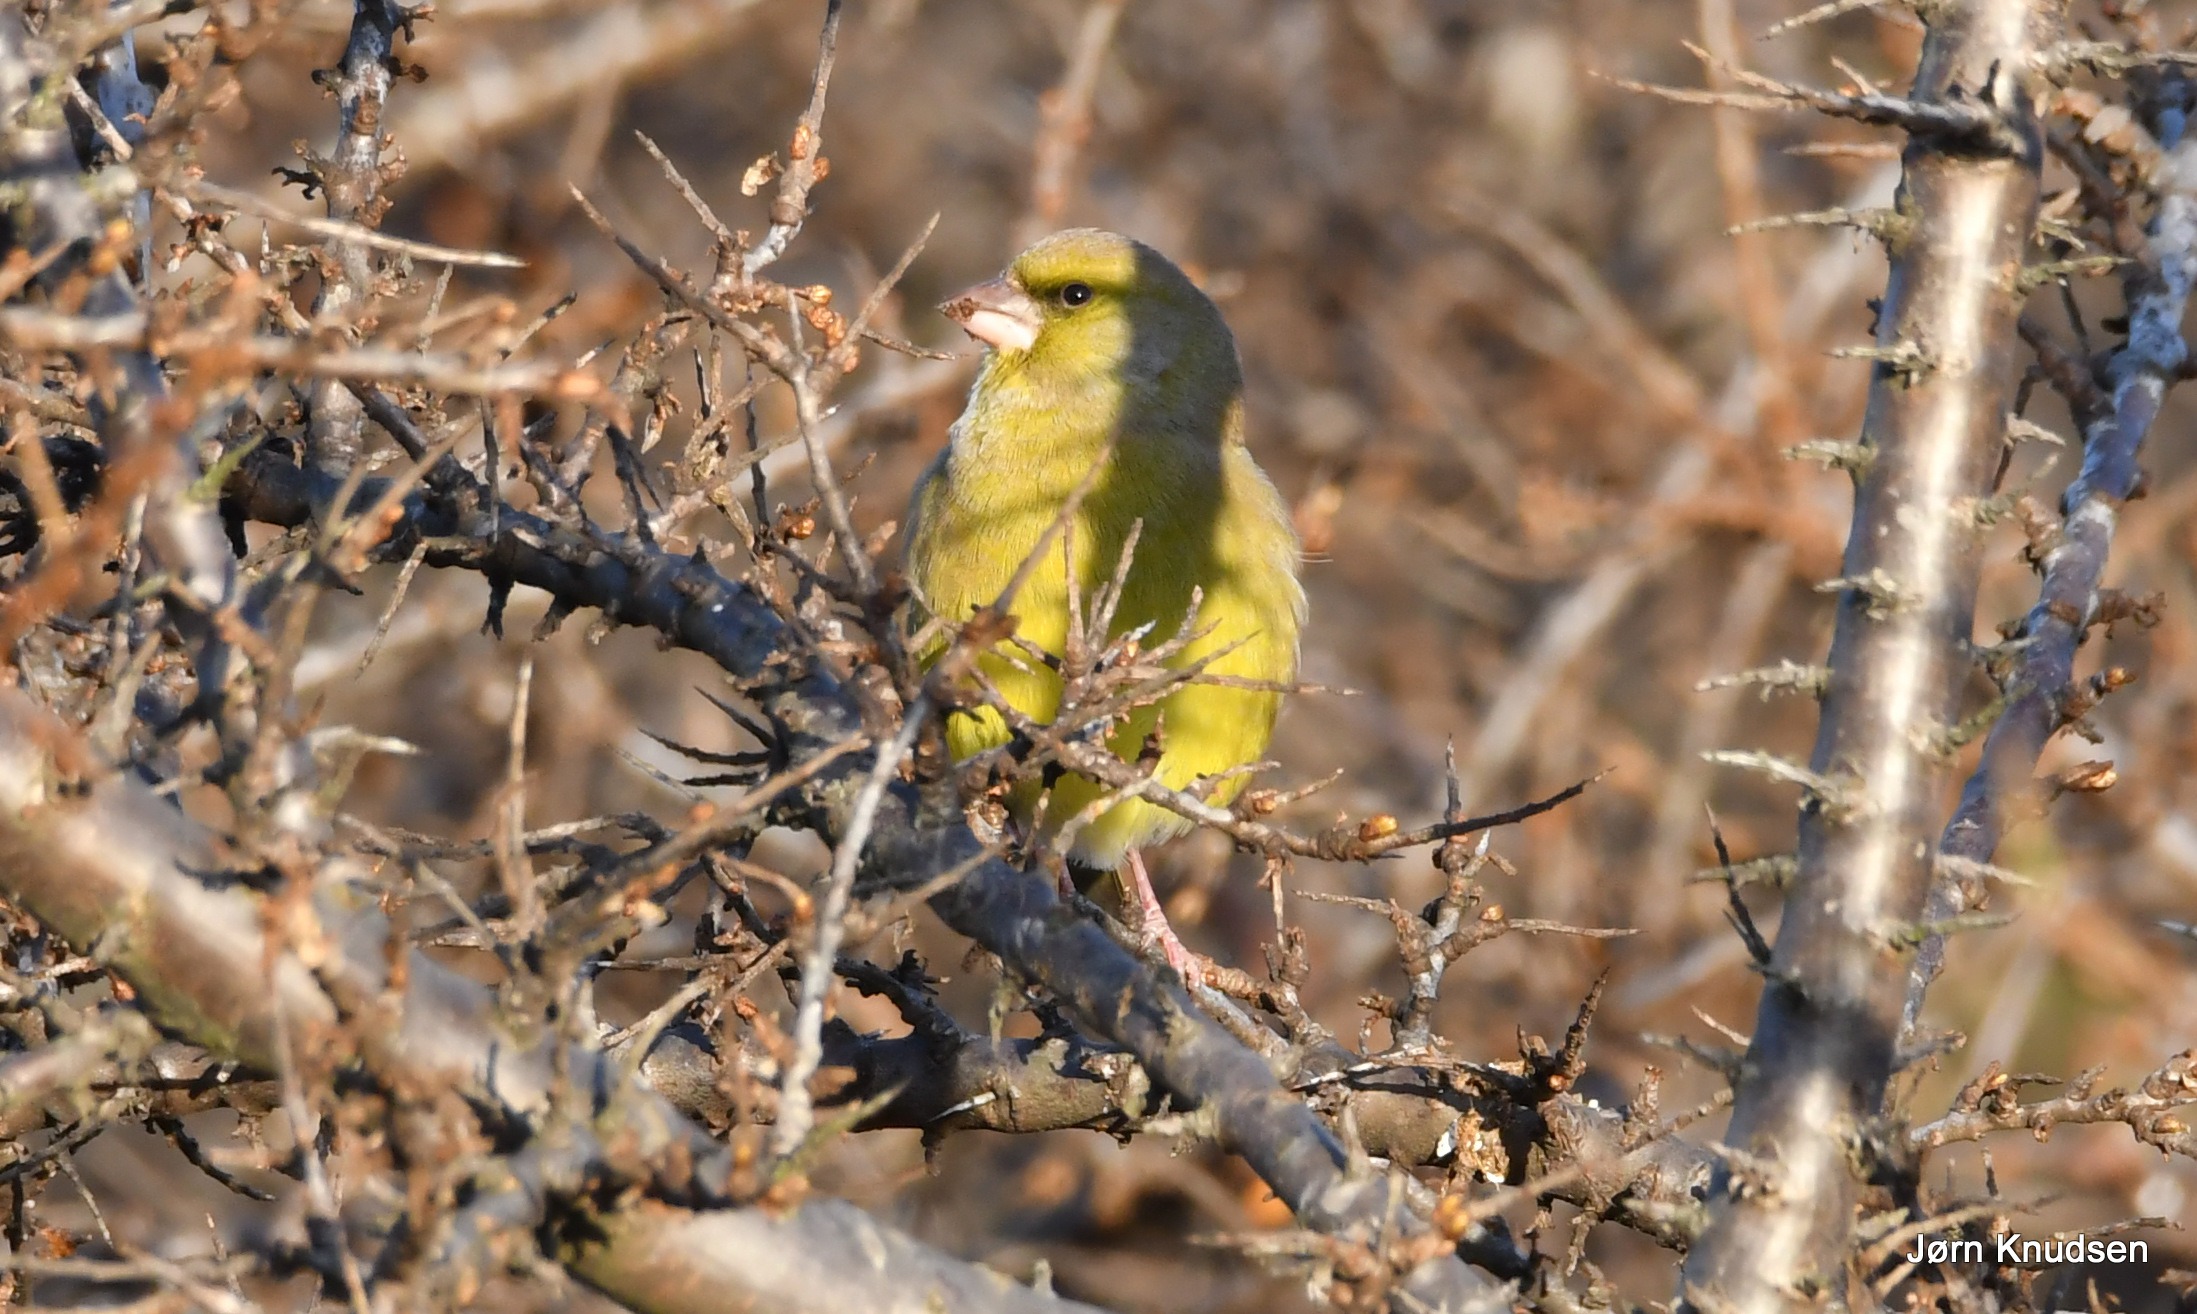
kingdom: Plantae
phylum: Tracheophyta
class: Liliopsida
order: Poales
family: Poaceae
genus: Chloris
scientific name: Chloris chloris
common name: Grønirisk
